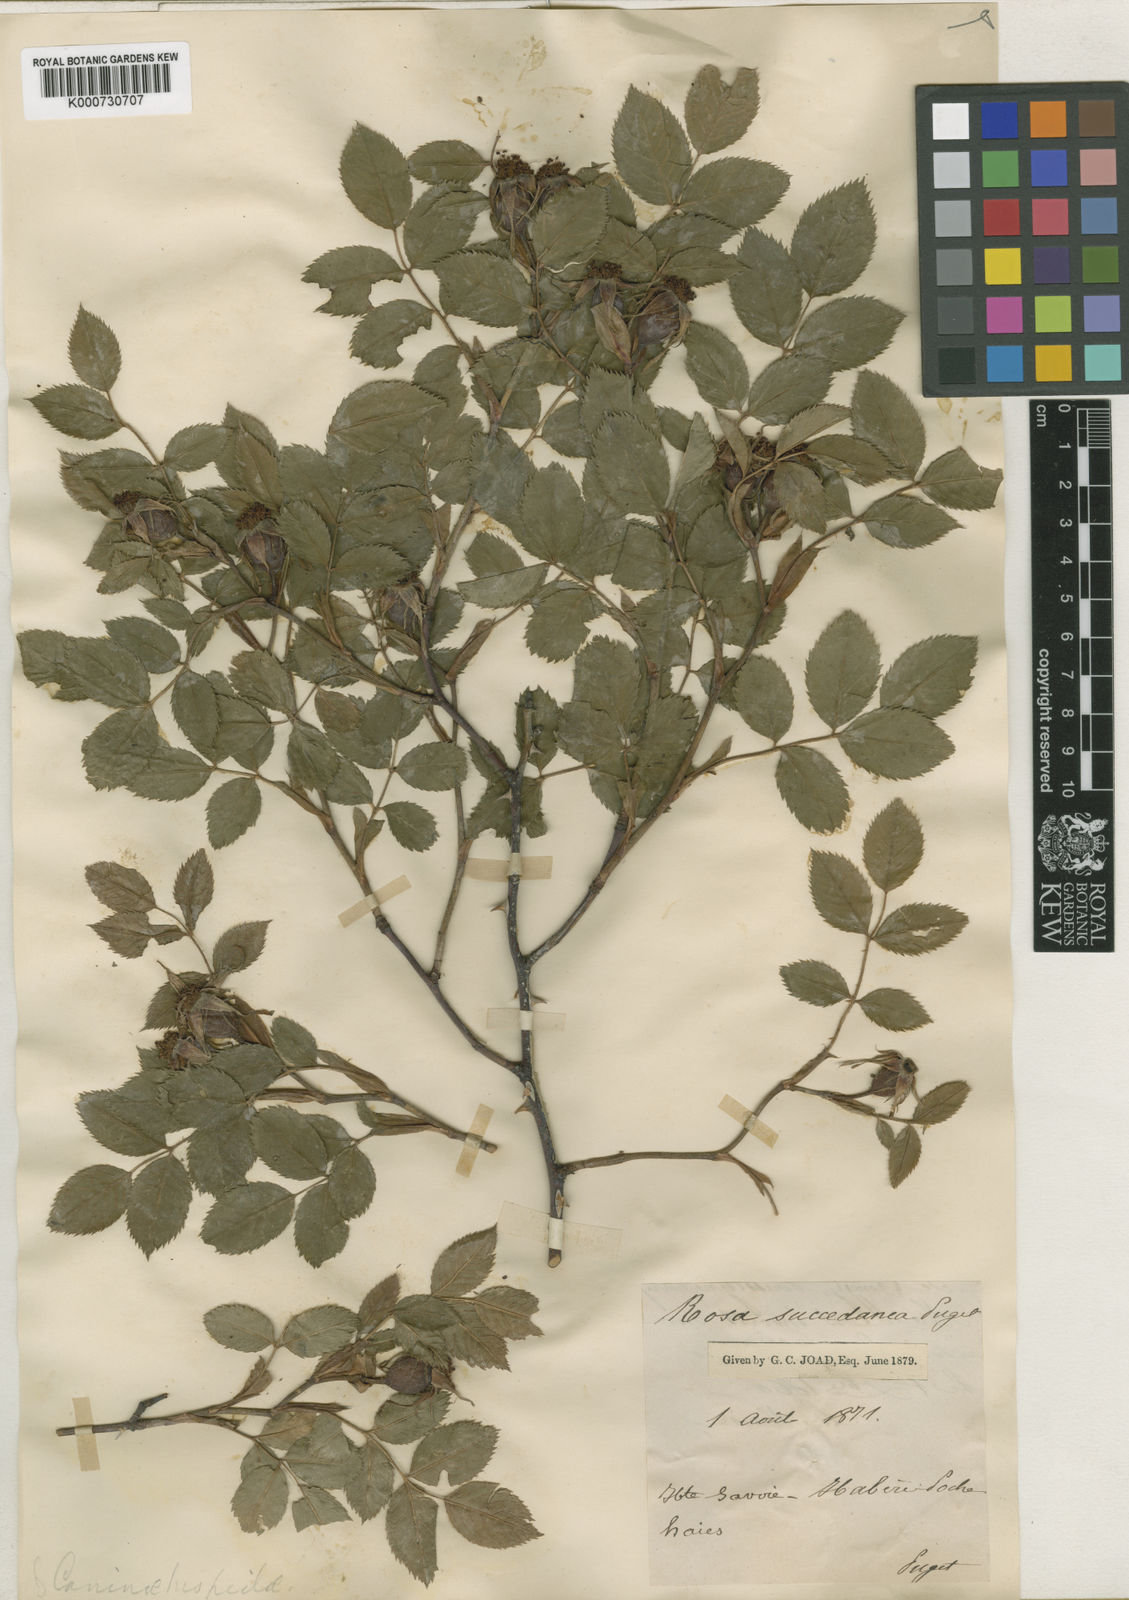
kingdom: Plantae
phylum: Tracheophyta
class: Magnoliopsida
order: Rosales
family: Rosaceae
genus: Rosa
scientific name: Rosa
